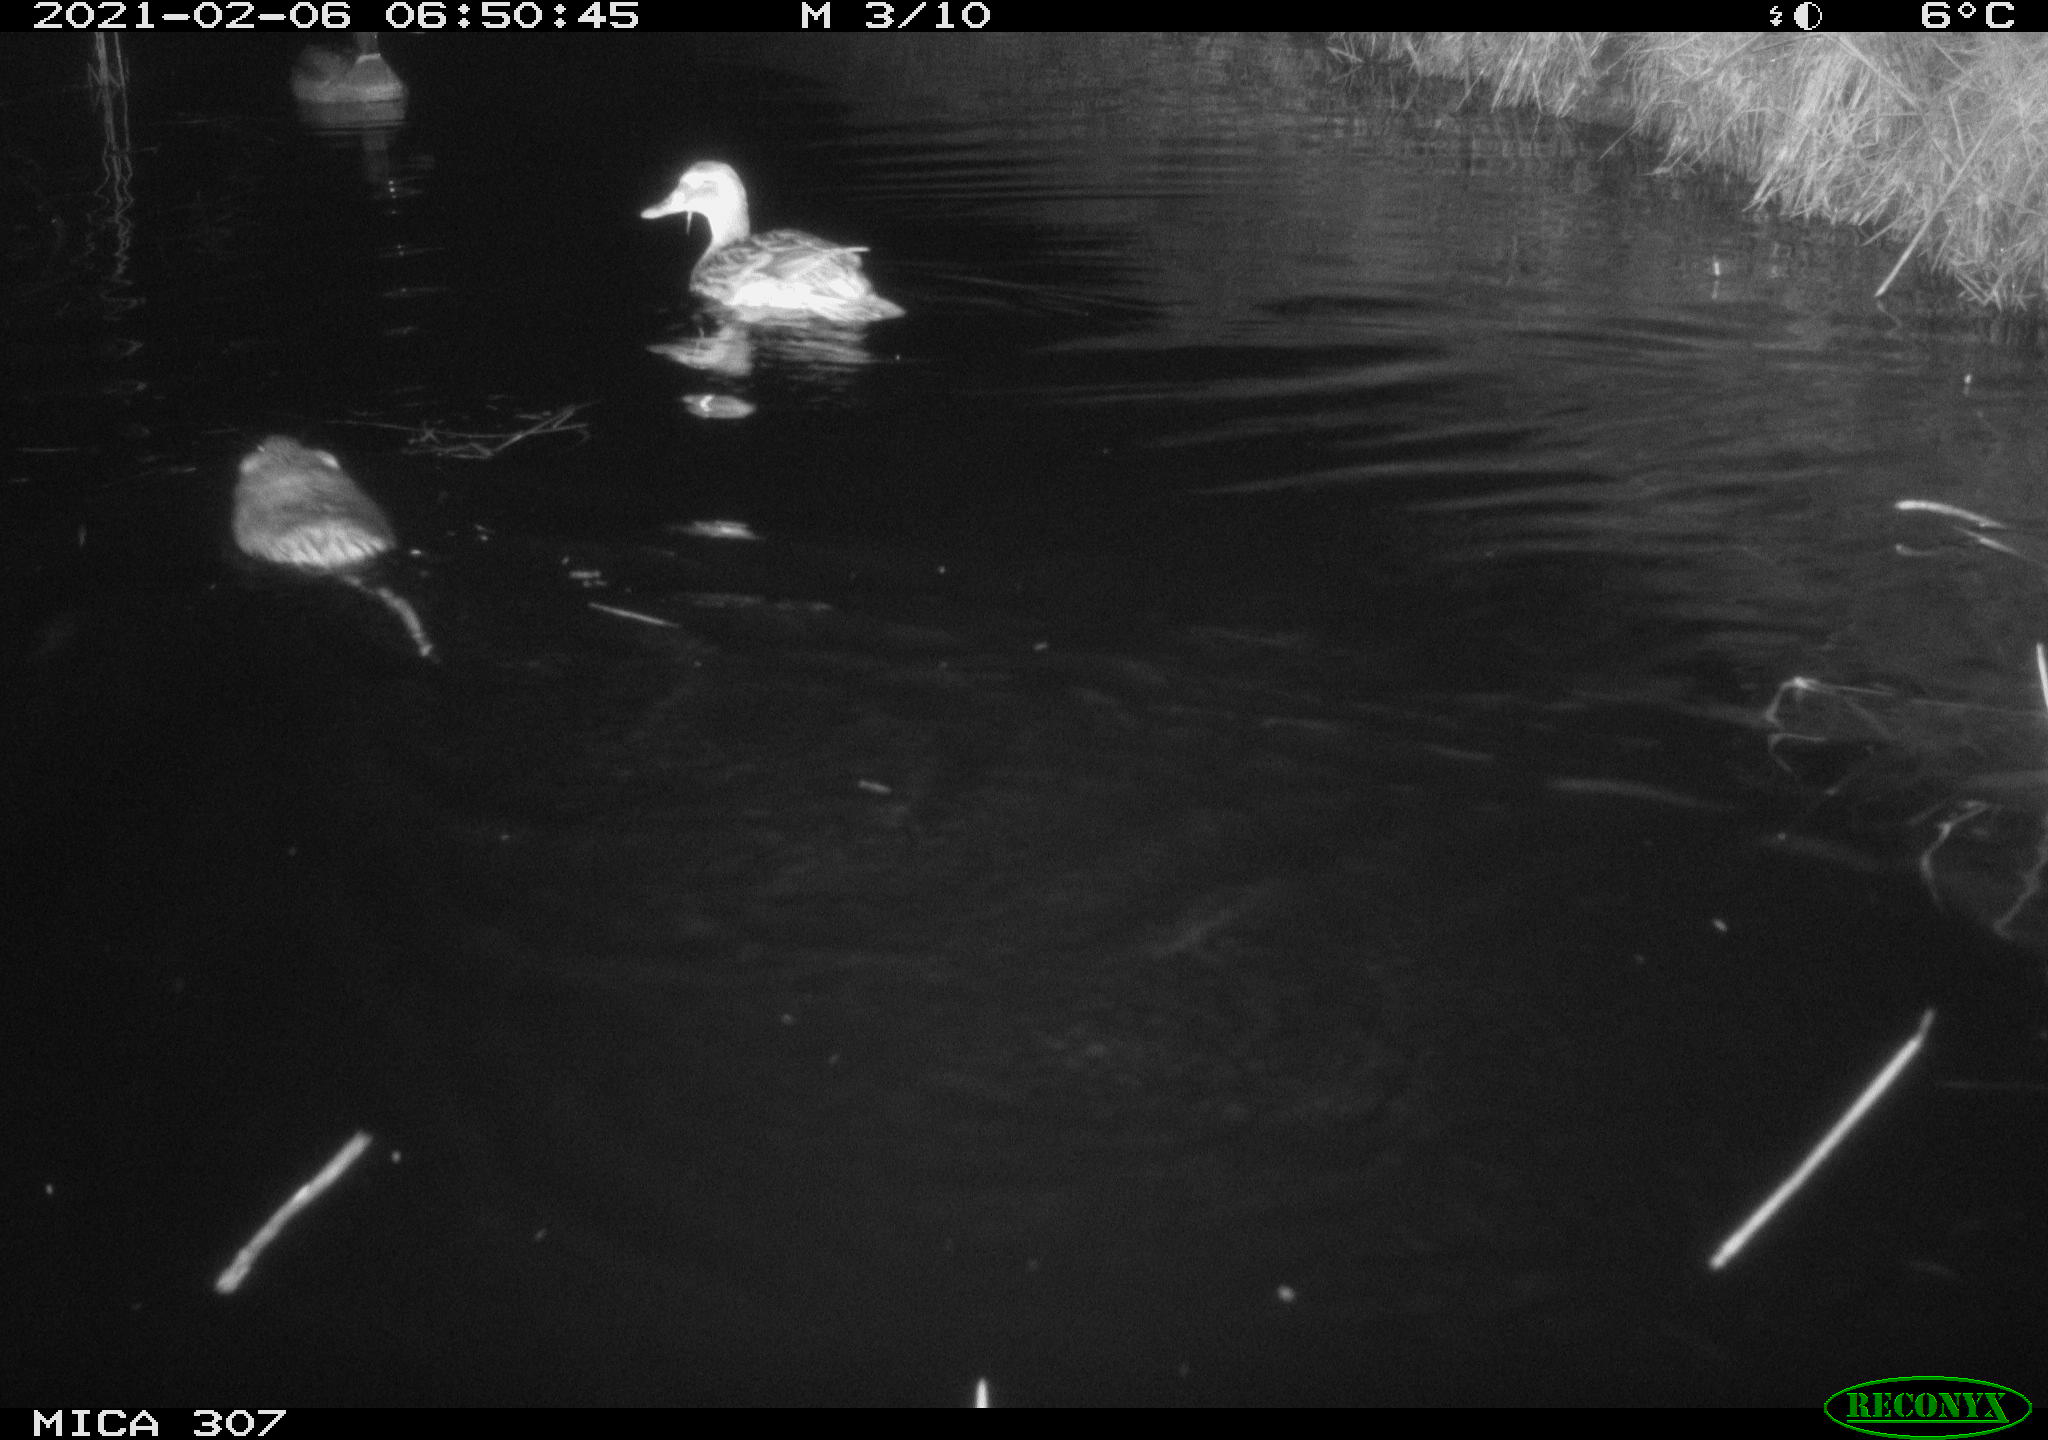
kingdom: Animalia
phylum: Chordata
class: Mammalia
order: Rodentia
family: Cricetidae
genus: Ondatra
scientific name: Ondatra zibethicus
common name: Muskrat
